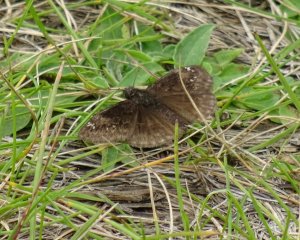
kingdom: Animalia
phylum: Arthropoda
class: Insecta
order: Lepidoptera
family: Hesperiidae
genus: Gesta
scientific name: Gesta
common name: Wild Indigo Duskywing
